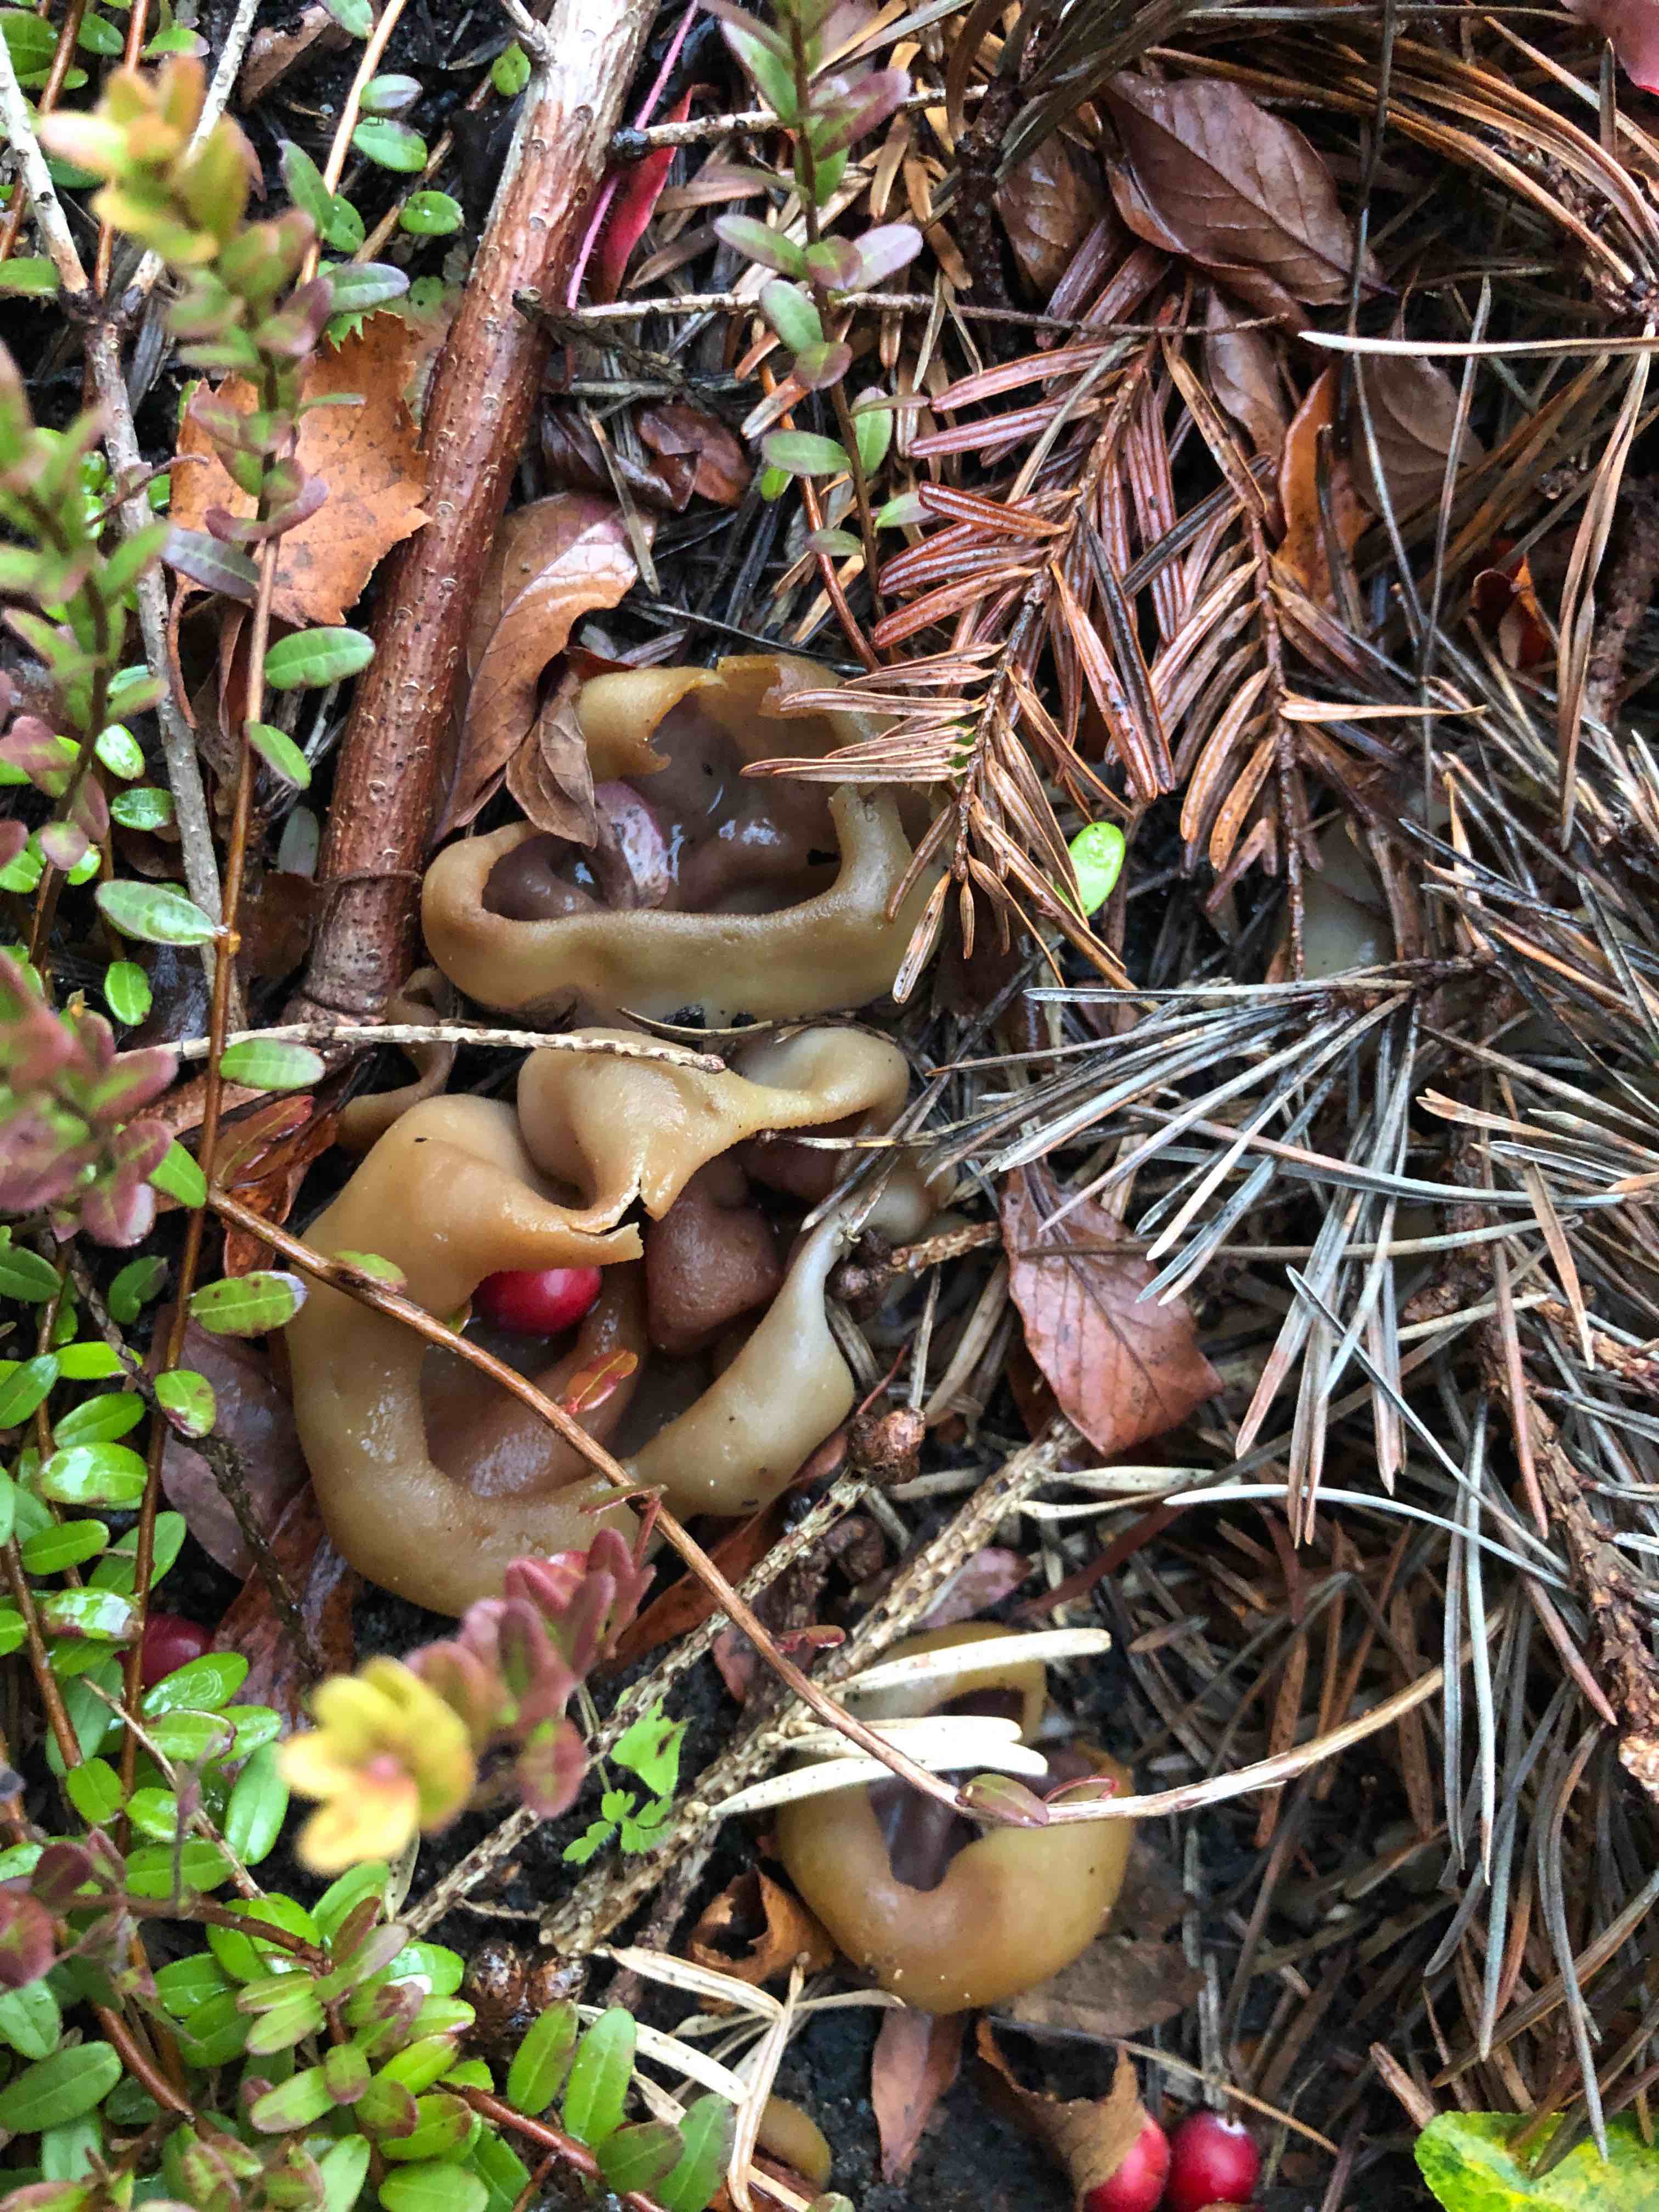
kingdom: Fungi
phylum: Ascomycota
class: Pezizomycetes
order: Pezizales
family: Pezizaceae
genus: Paragalactinia
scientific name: Paragalactinia michelii
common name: gulkødet bægersvamp
